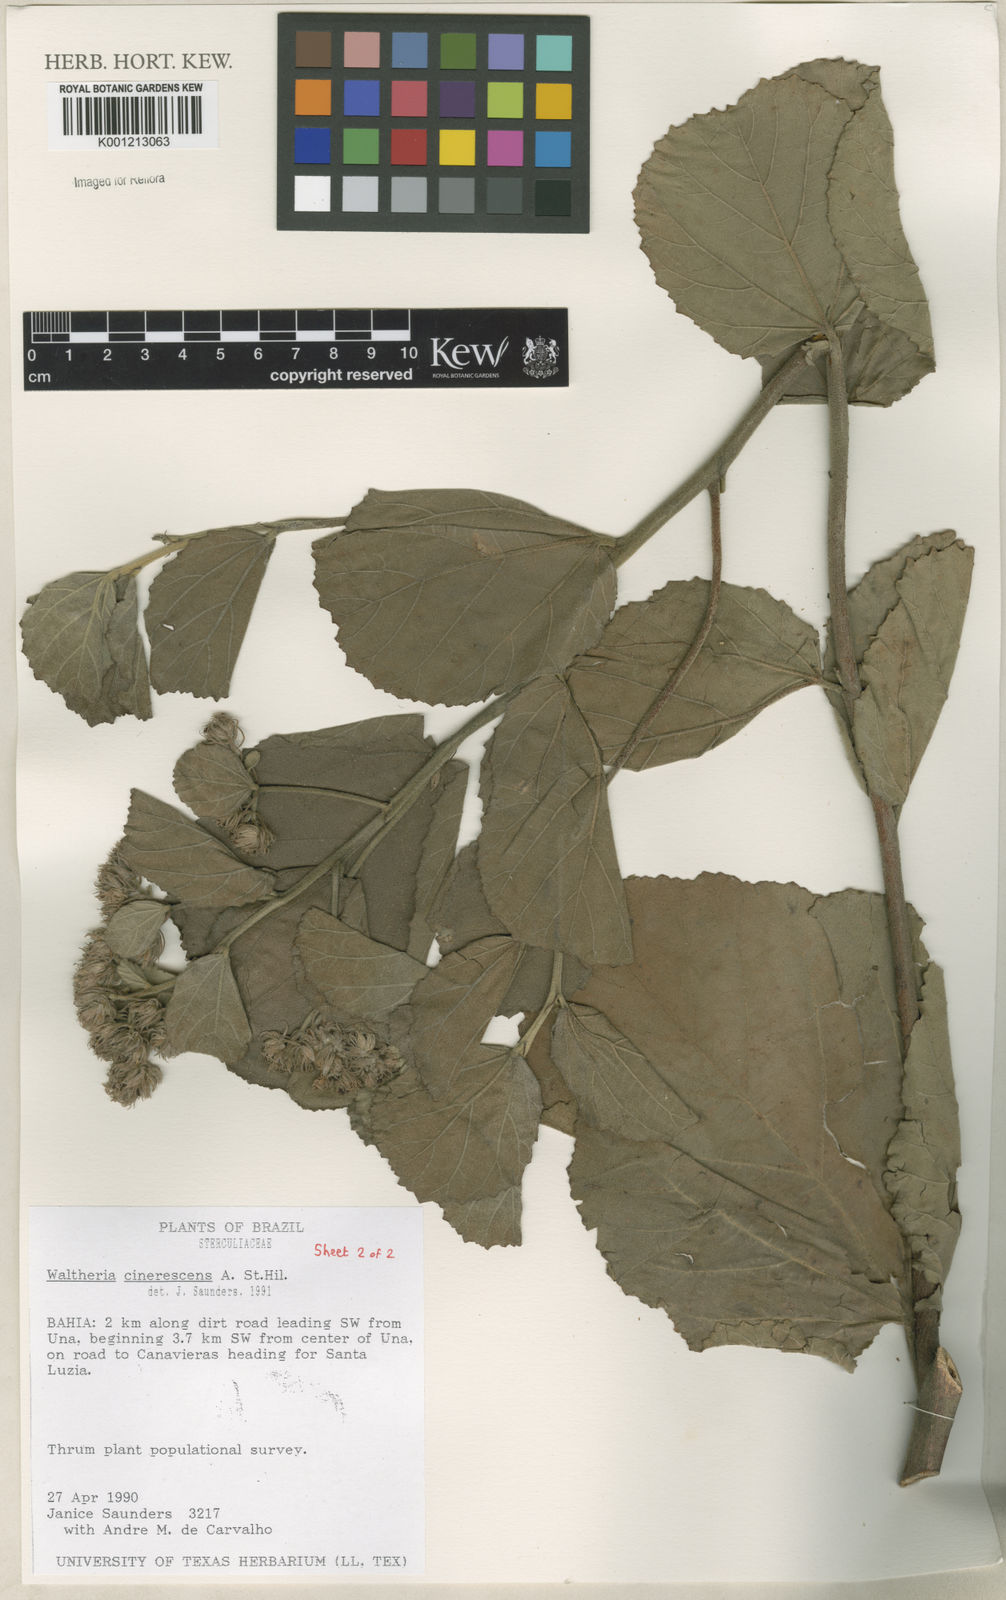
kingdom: Plantae
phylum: Tracheophyta
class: Magnoliopsida
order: Malvales
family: Malvaceae
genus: Waltheria
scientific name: Waltheria cinerescens
